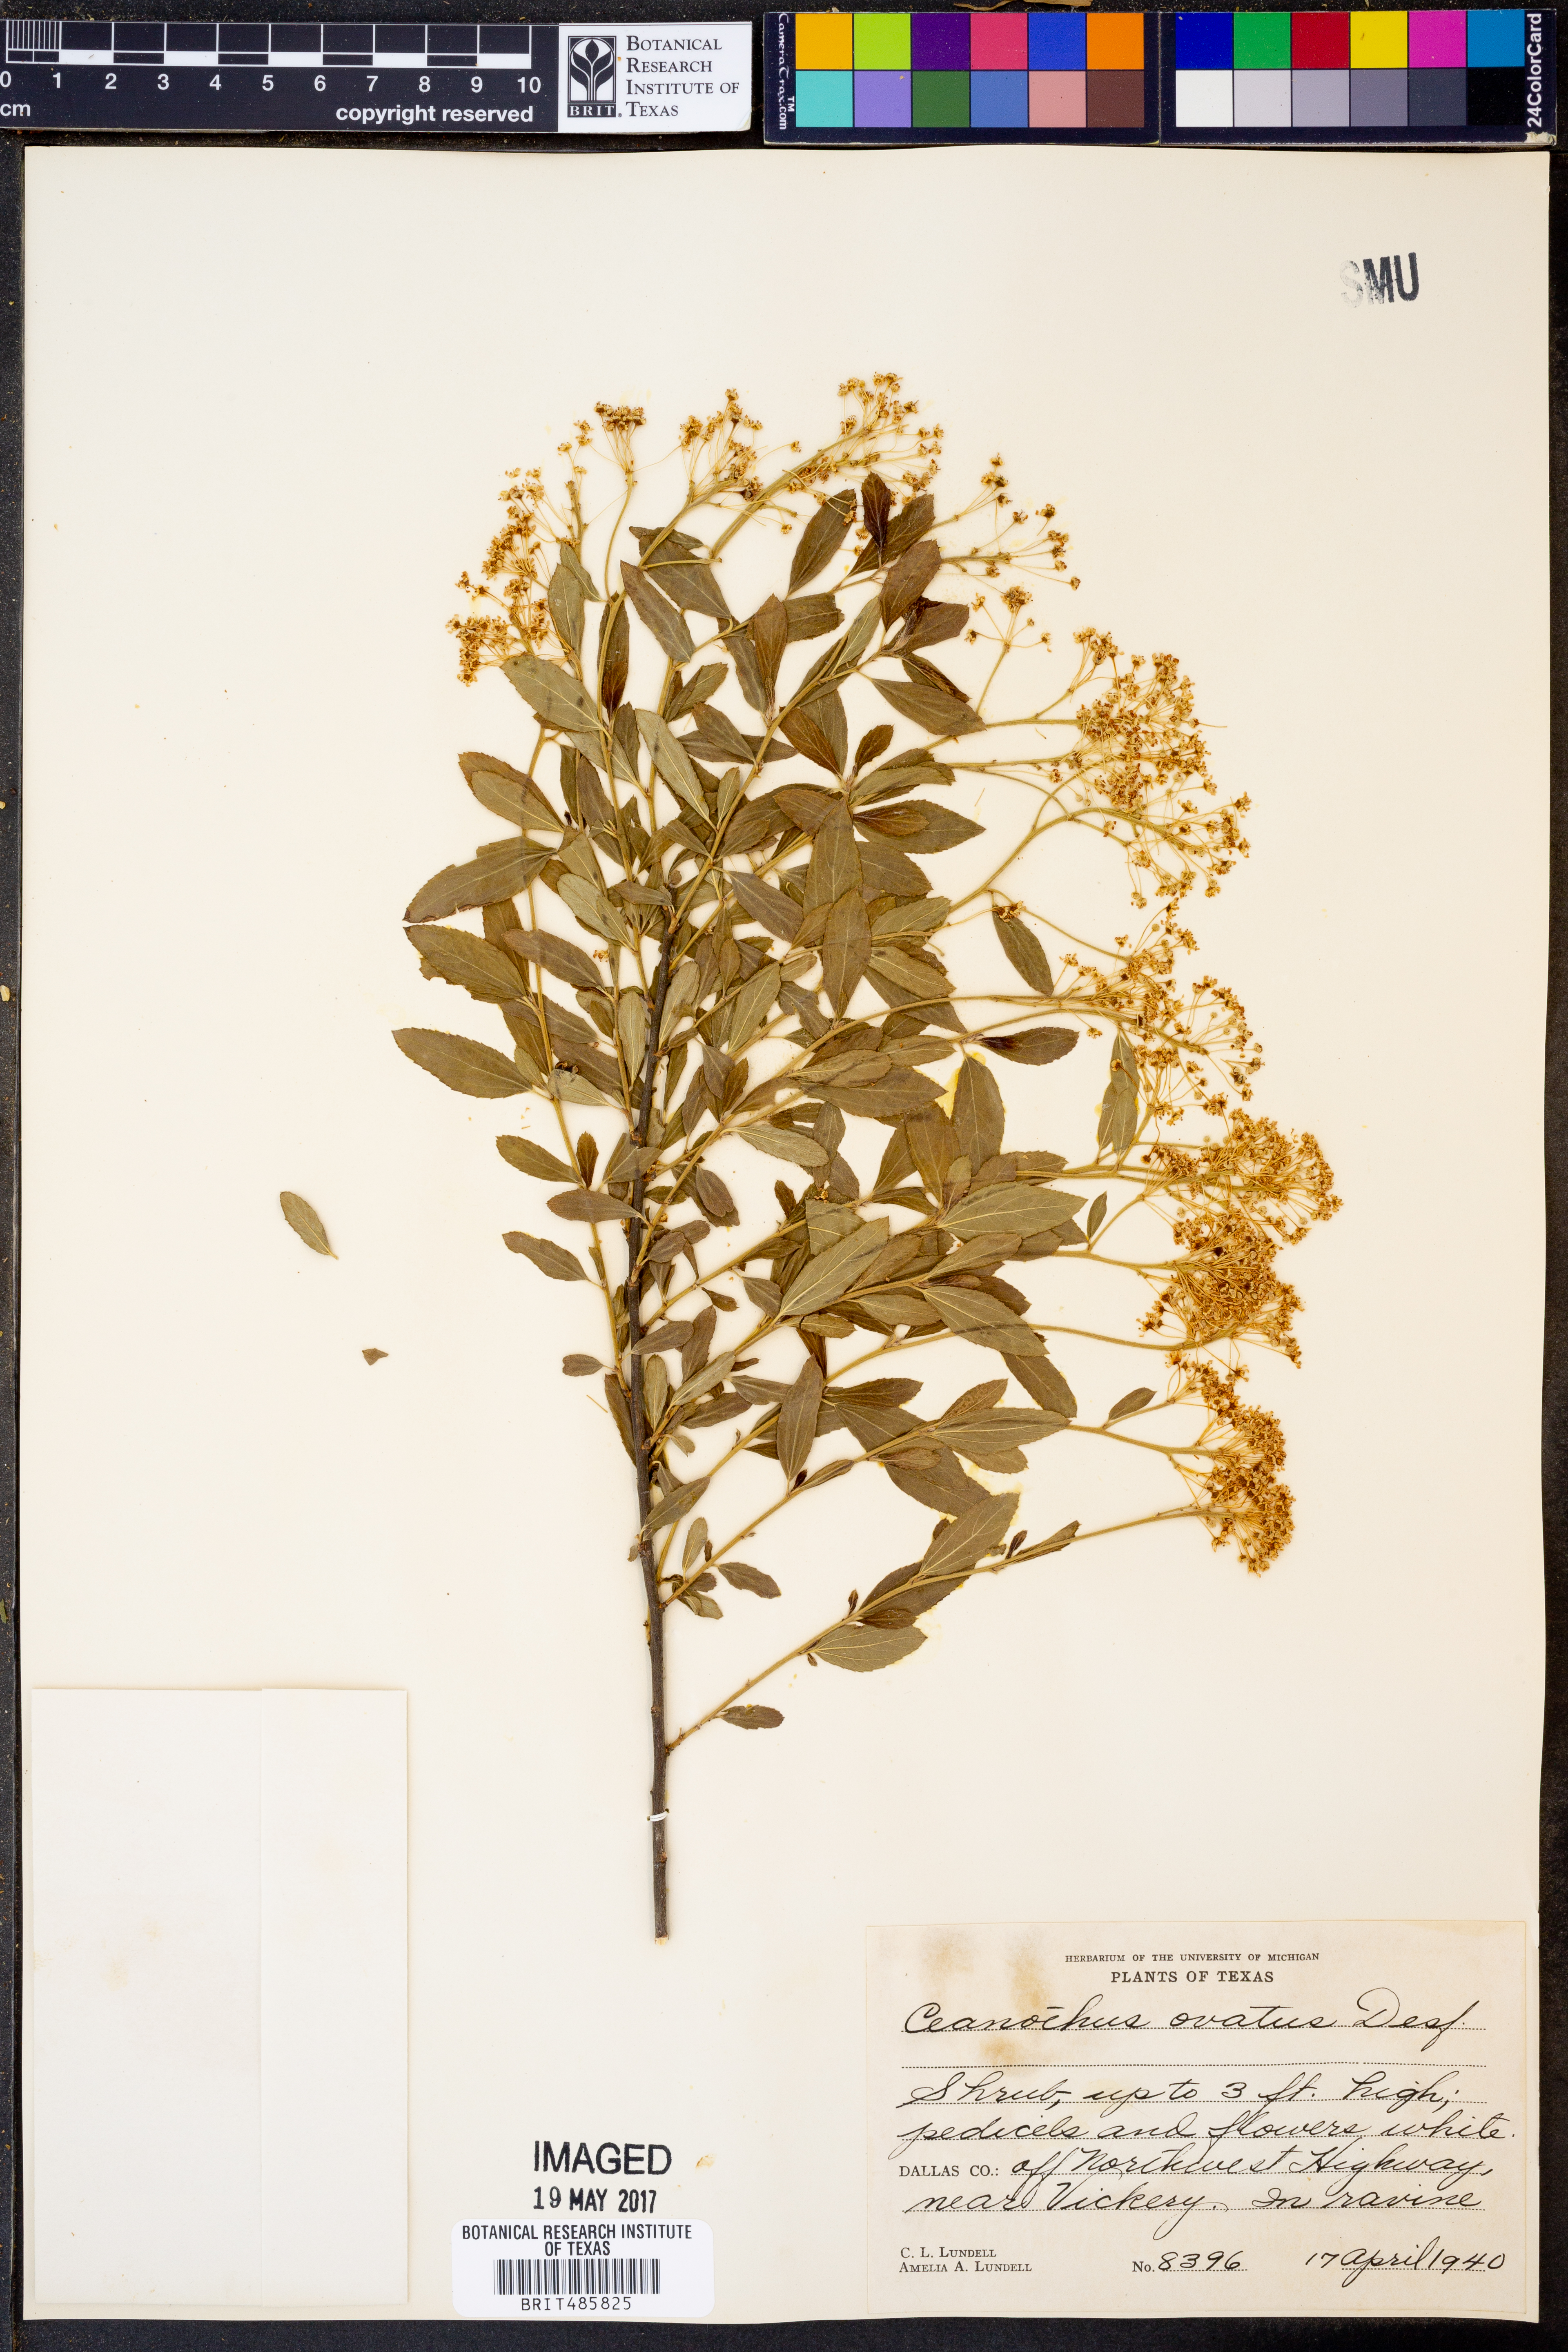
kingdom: Plantae
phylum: Tracheophyta
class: Magnoliopsida
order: Rosales
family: Rhamnaceae
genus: Ceanothus
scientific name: Ceanothus herbaceus
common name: Inland ceanothus
